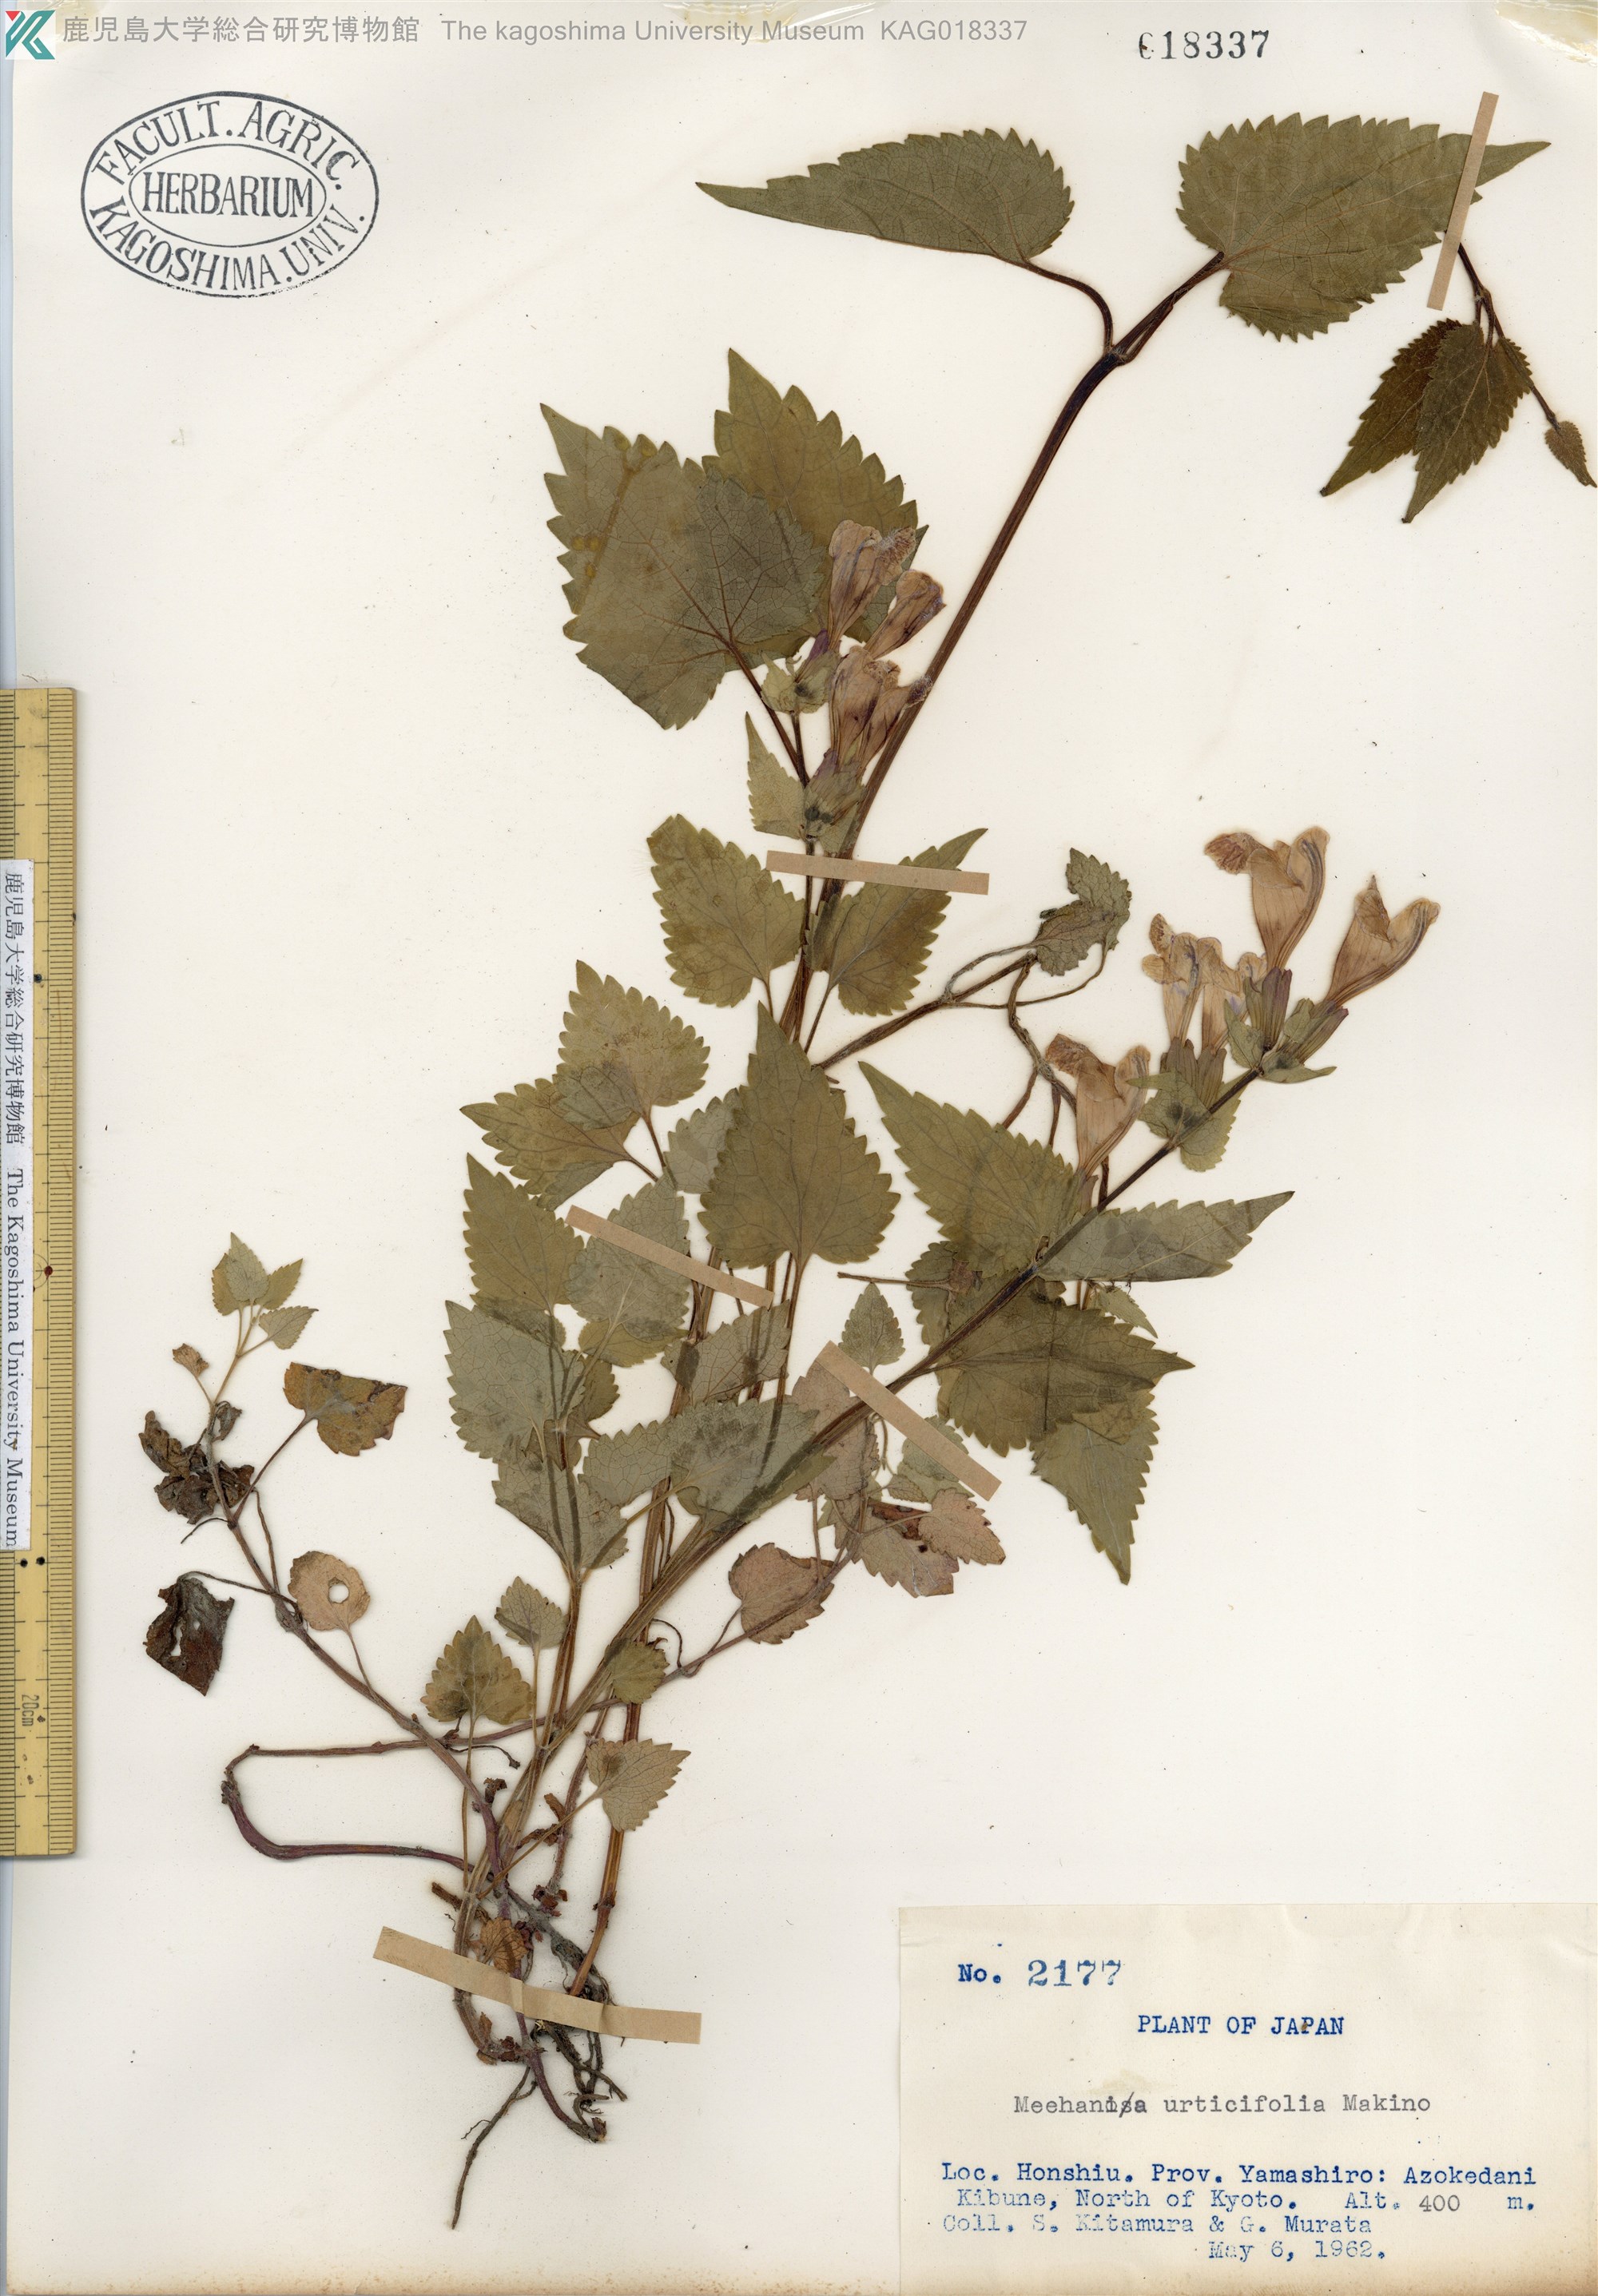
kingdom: Plantae
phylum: Tracheophyta
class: Magnoliopsida
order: Lamiales
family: Lamiaceae
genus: Meehania
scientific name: Meehania urticifolia
